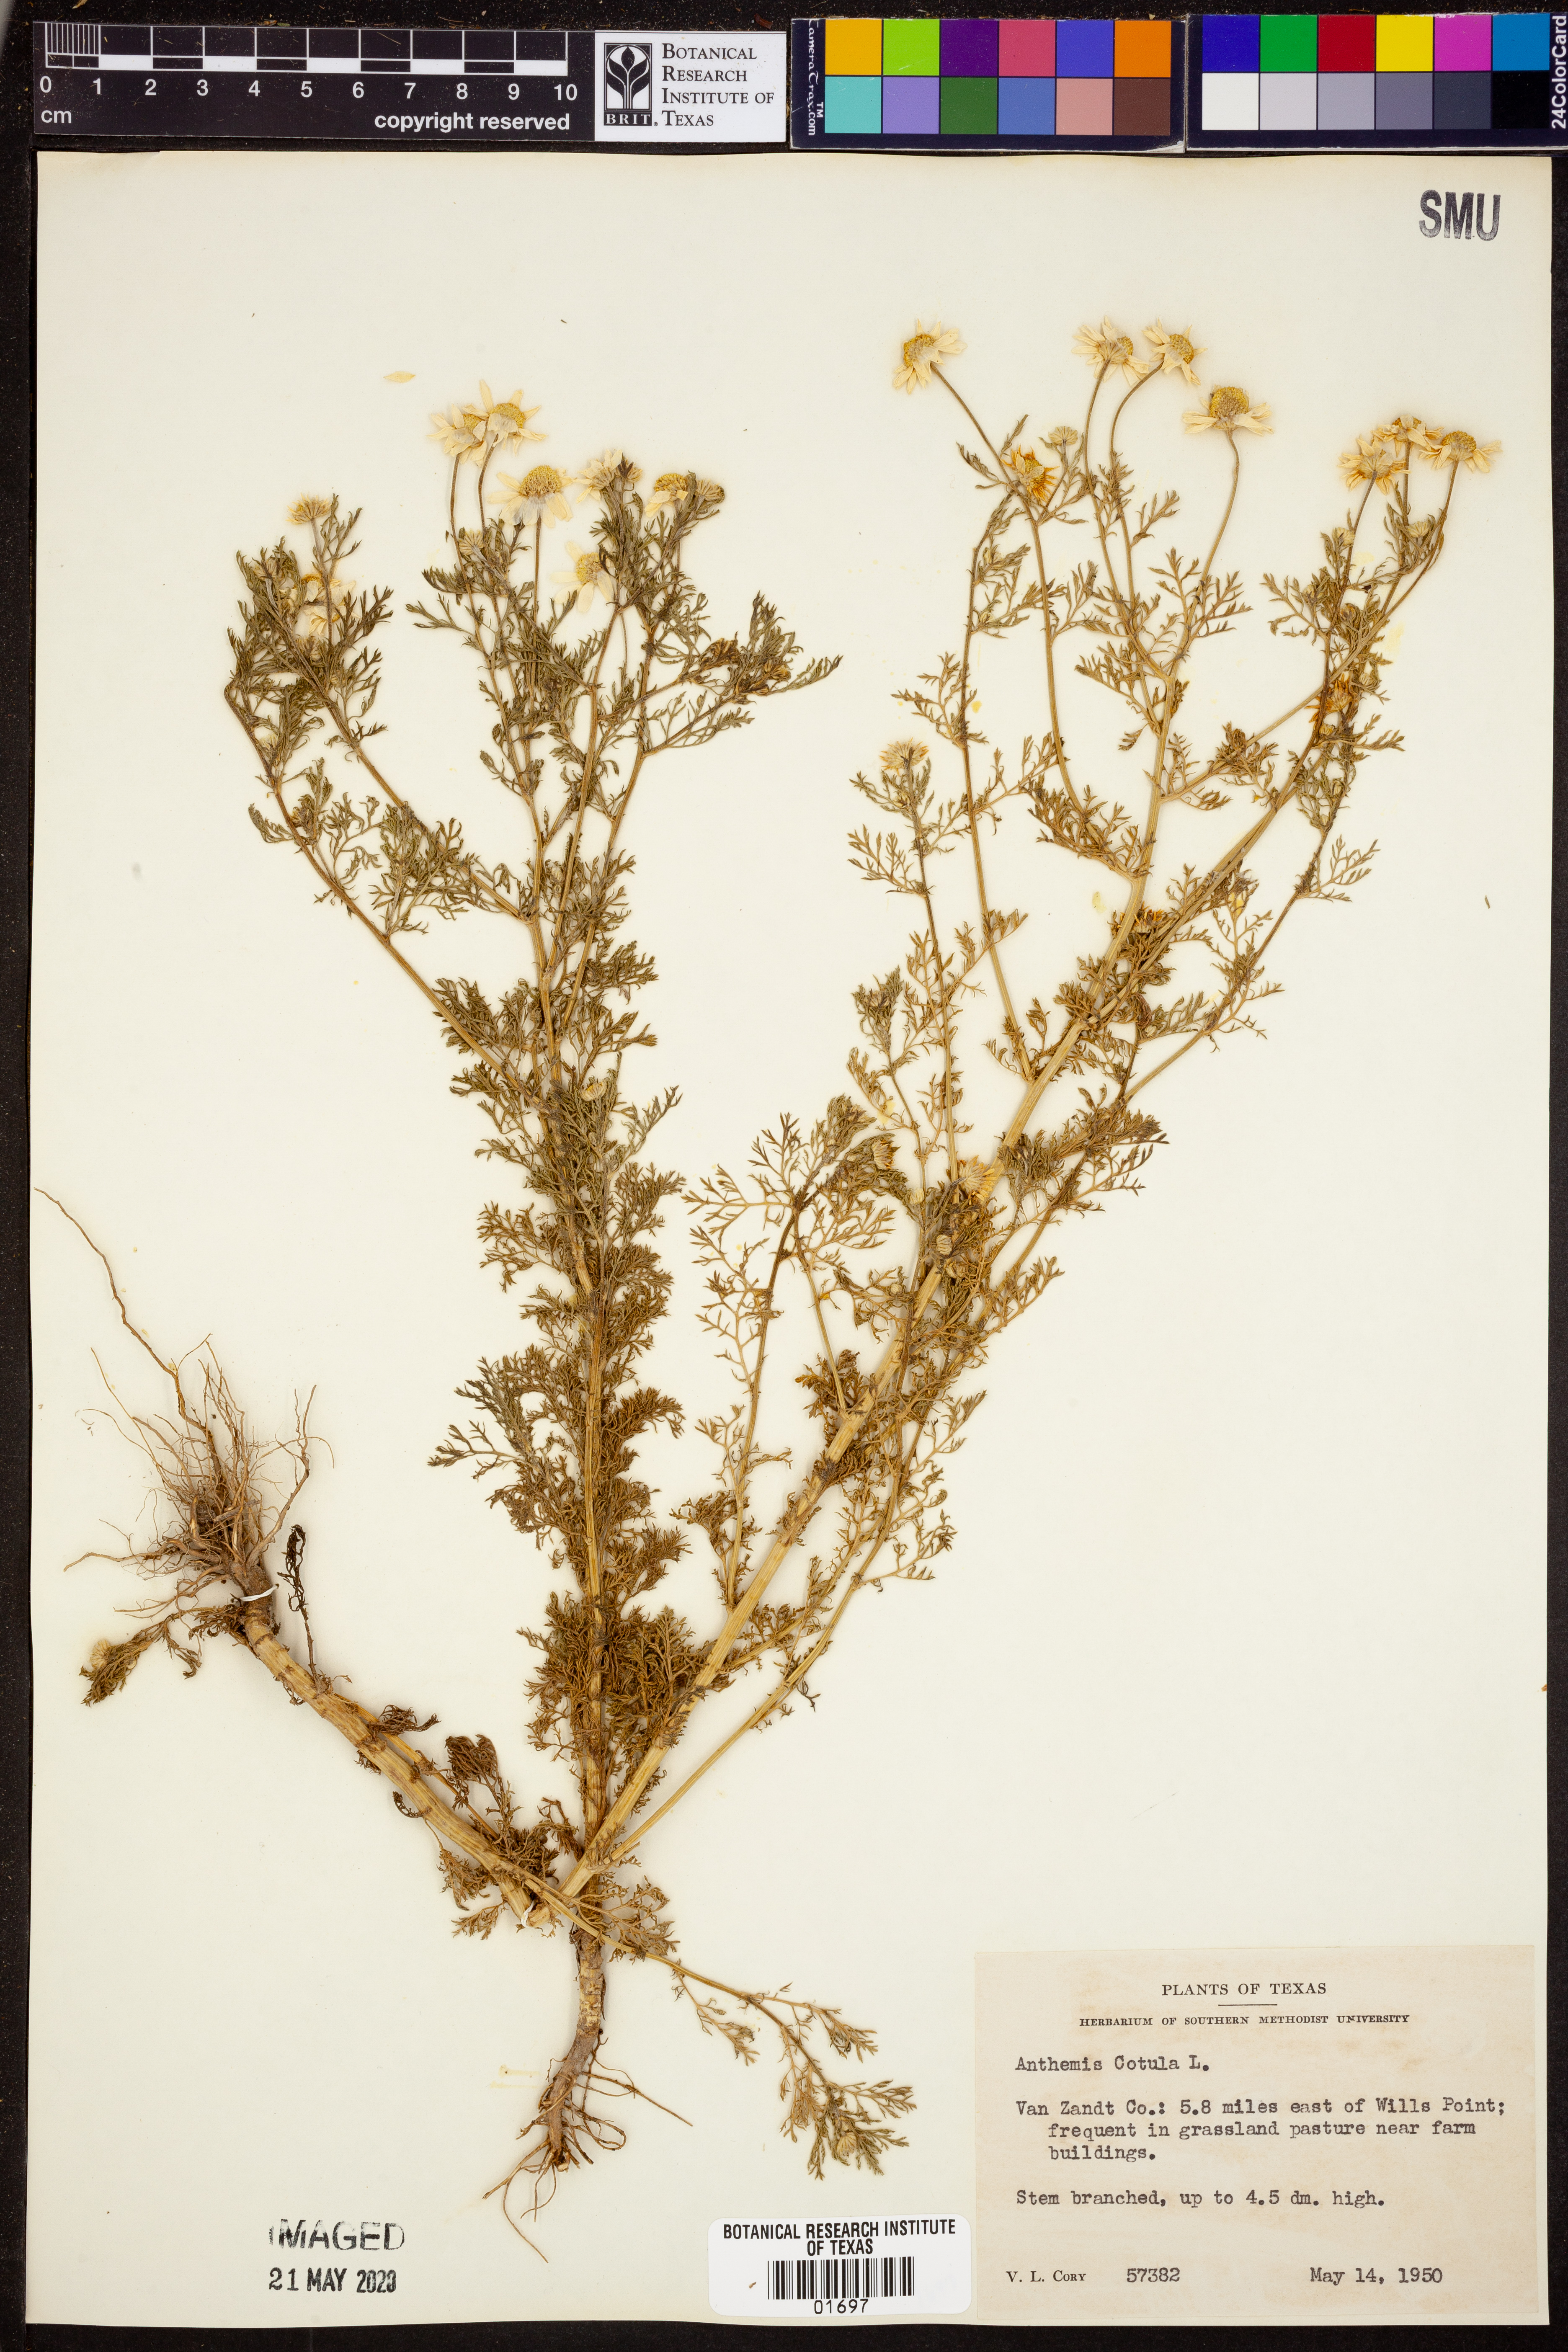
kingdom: Plantae
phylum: Tracheophyta
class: Magnoliopsida
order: Asterales
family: Asteraceae
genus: Anthemis
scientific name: Anthemis cotula
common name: Stinking chamomile
